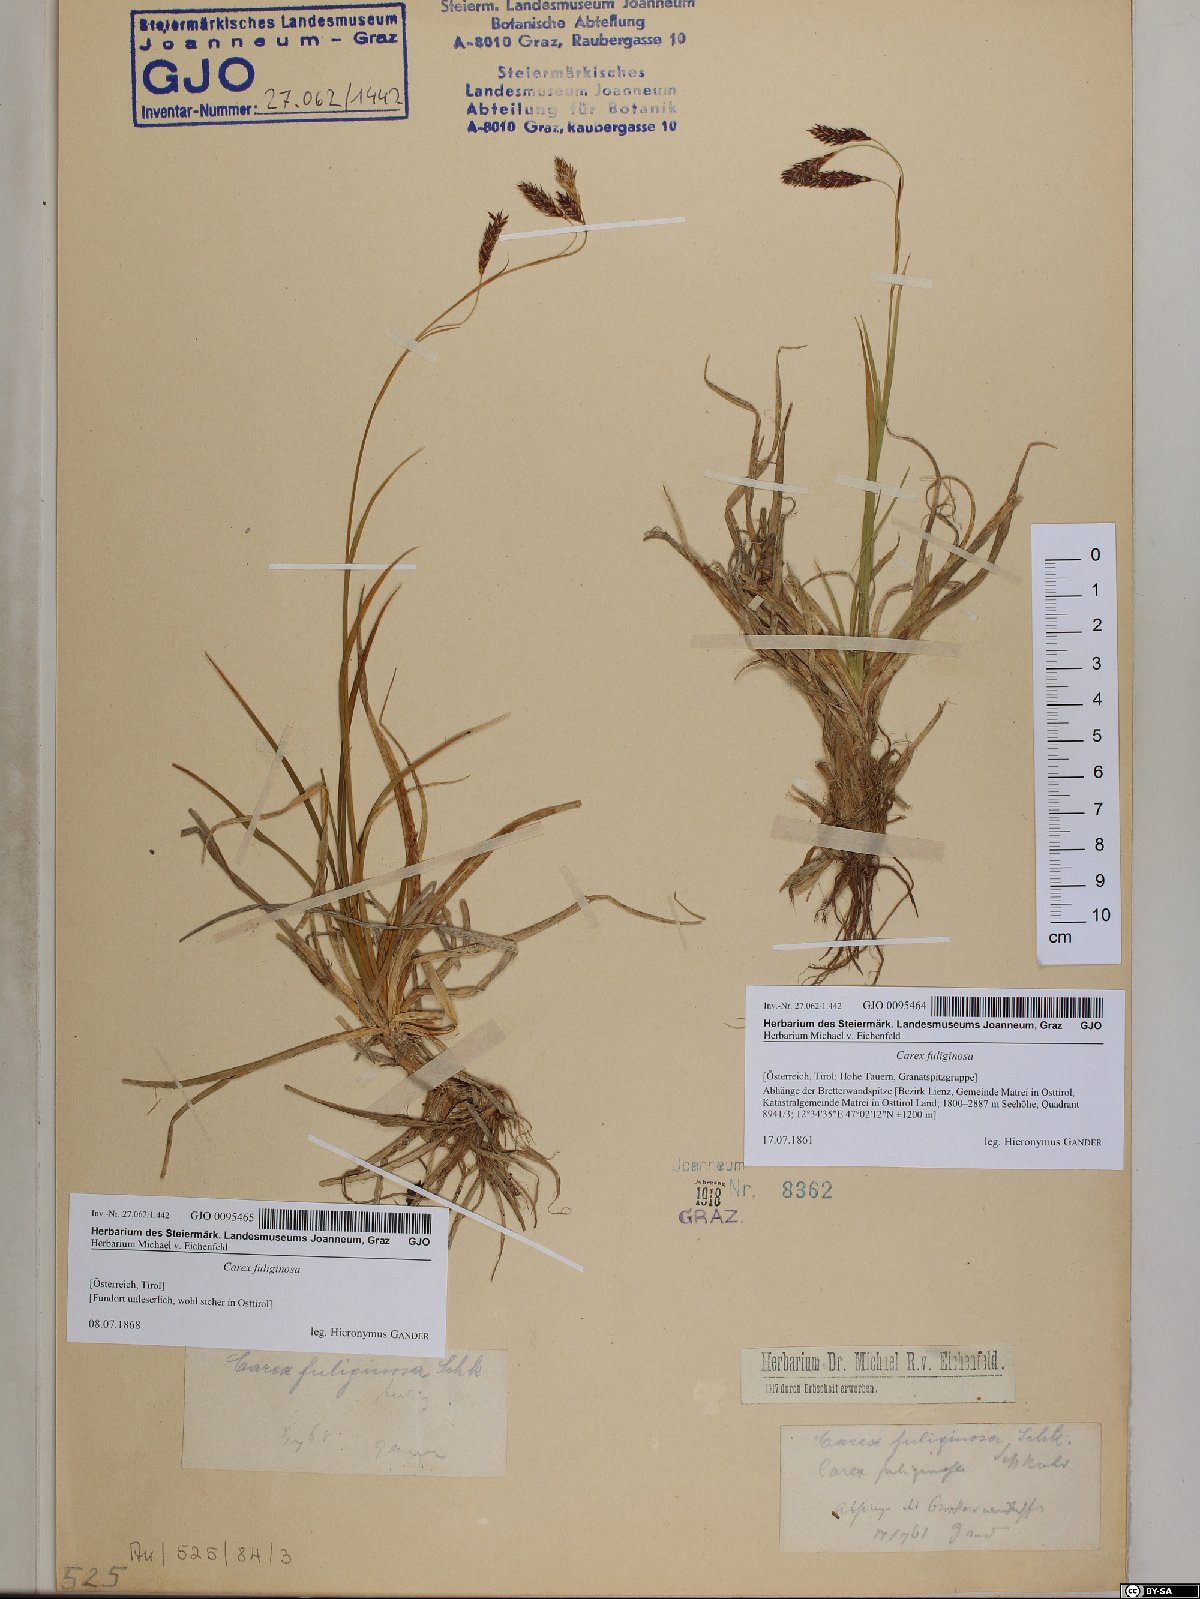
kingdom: Plantae
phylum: Tracheophyta
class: Liliopsida
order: Poales
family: Cyperaceae
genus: Carex
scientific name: Carex fuliginosa
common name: Few-flowered sedge
